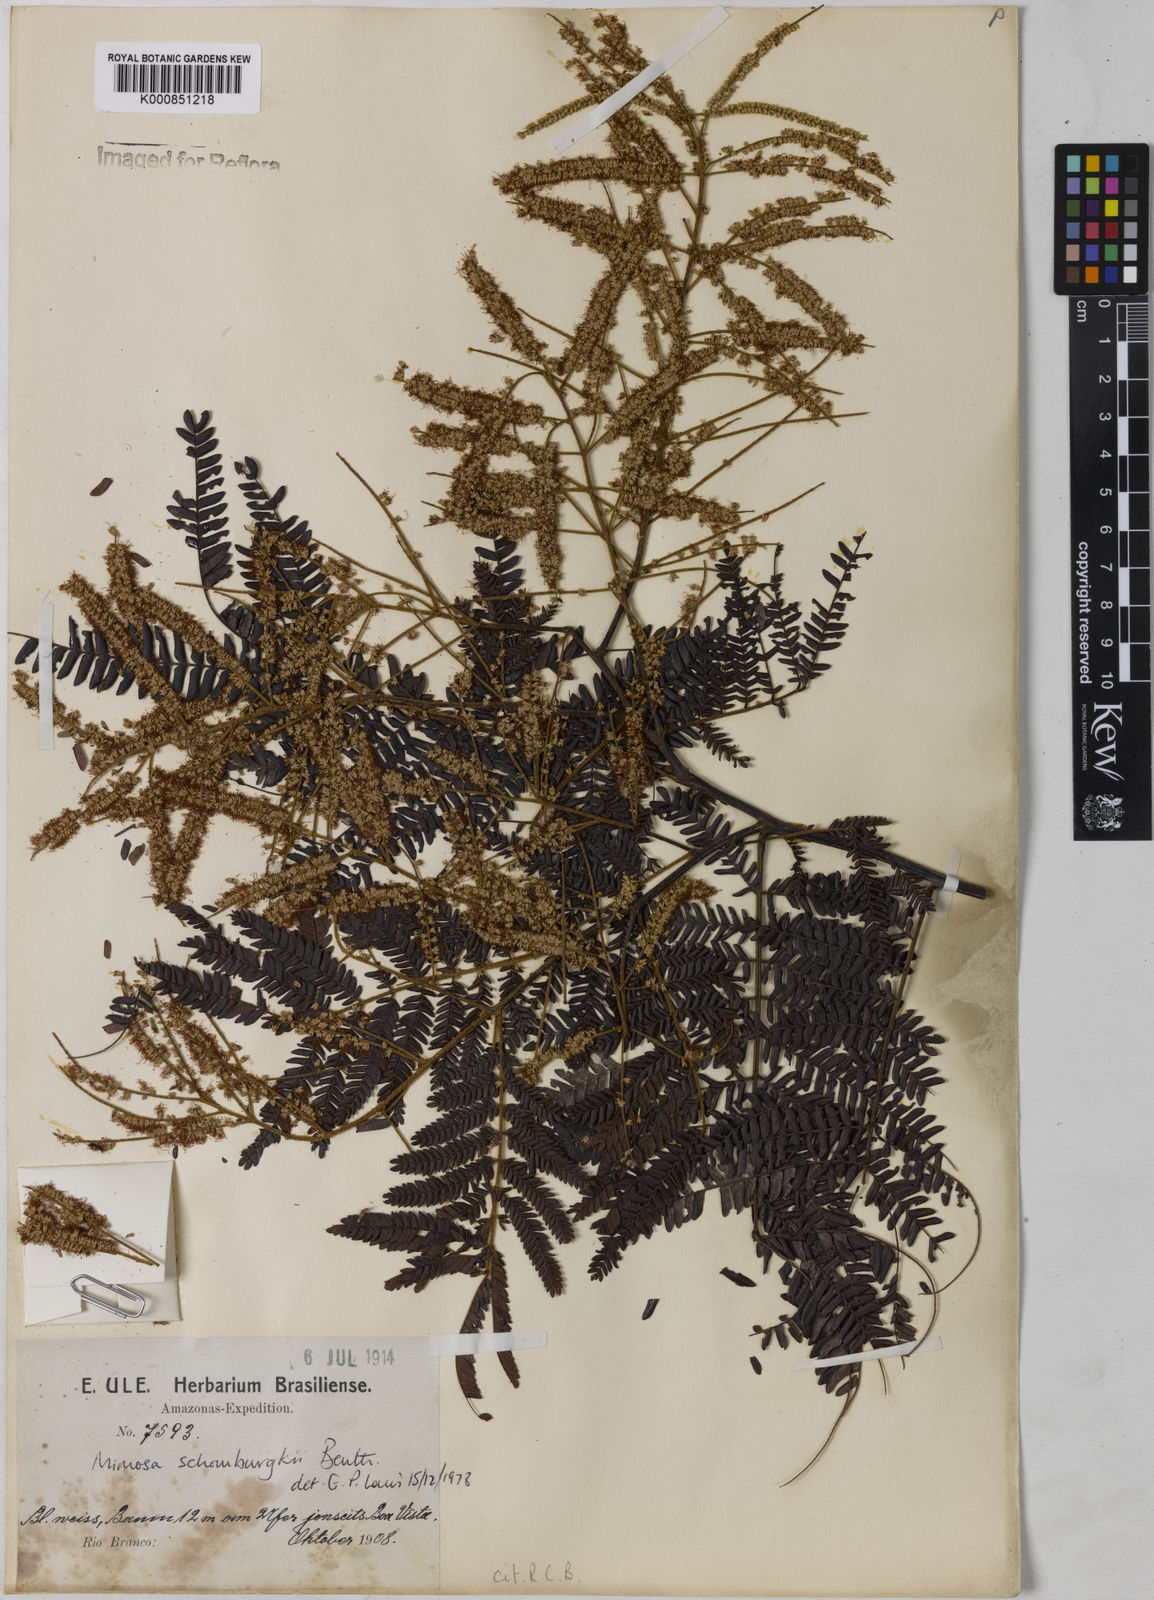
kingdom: Plantae
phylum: Tracheophyta
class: Magnoliopsida
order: Fabales
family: Fabaceae
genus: Mimosa
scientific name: Mimosa schomburgkii
